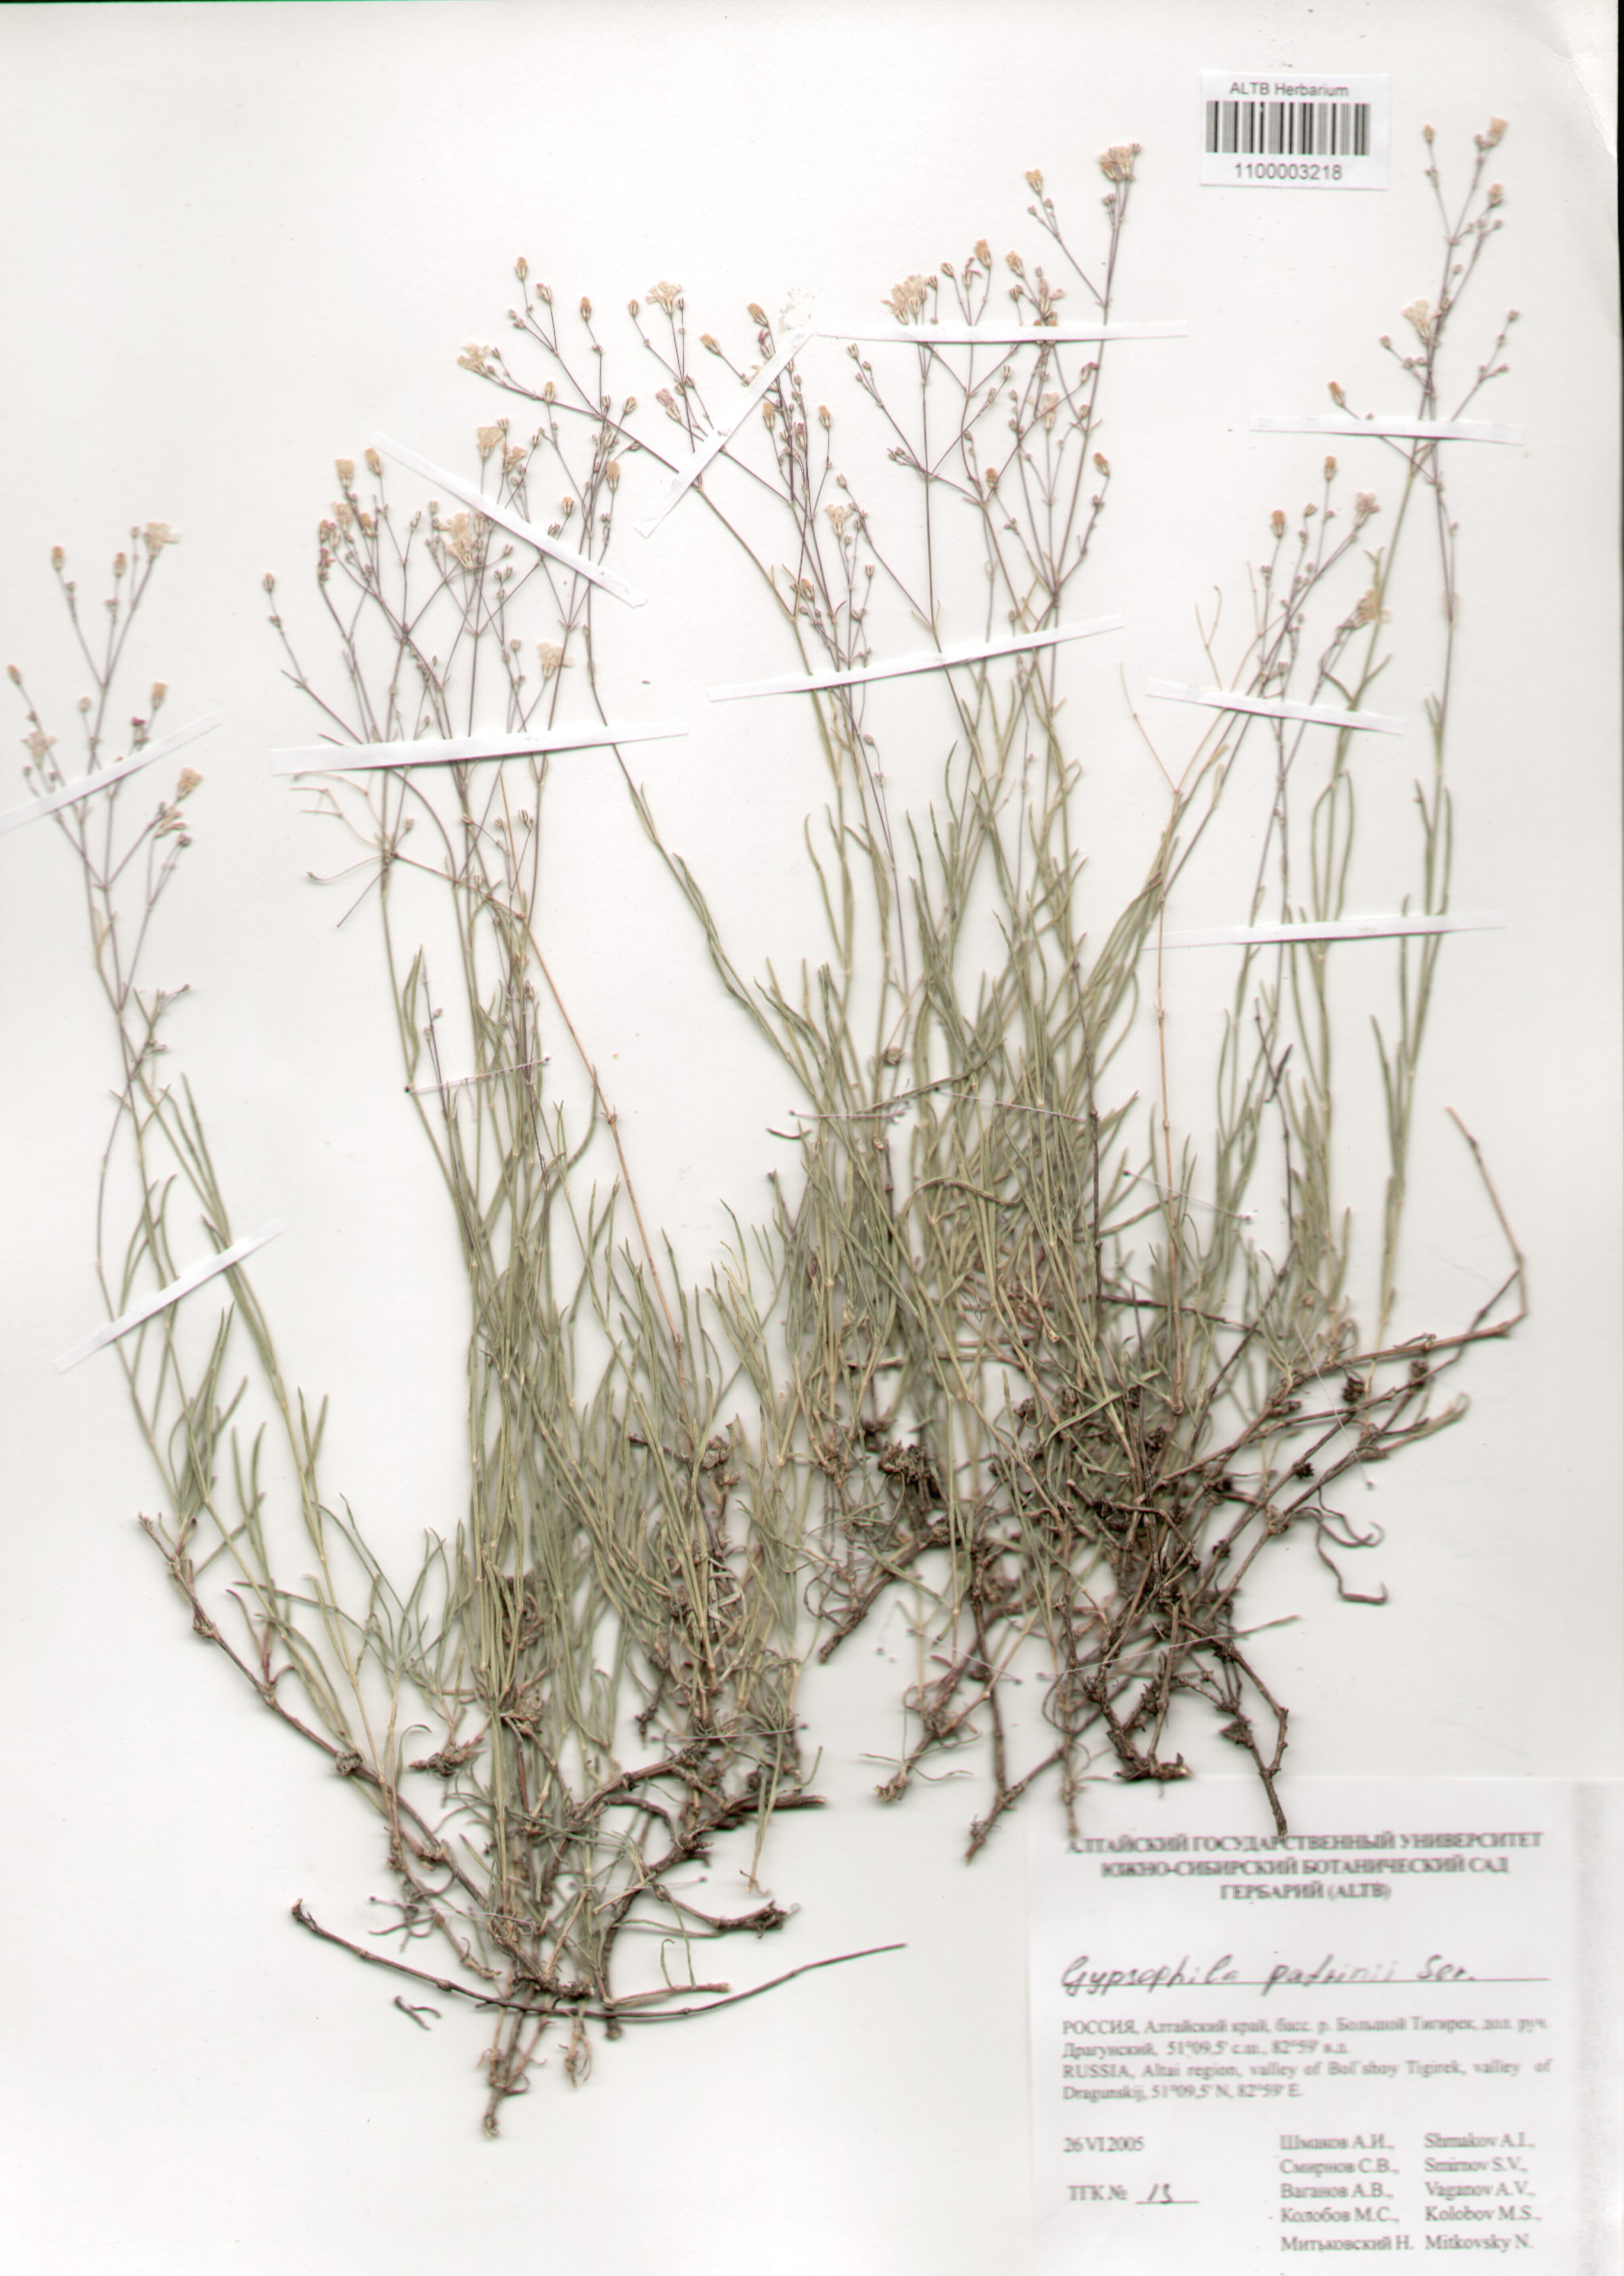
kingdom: Plantae
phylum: Tracheophyta
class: Magnoliopsida
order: Caryophyllales
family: Caryophyllaceae
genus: Gypsophila
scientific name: Gypsophila patrinii
